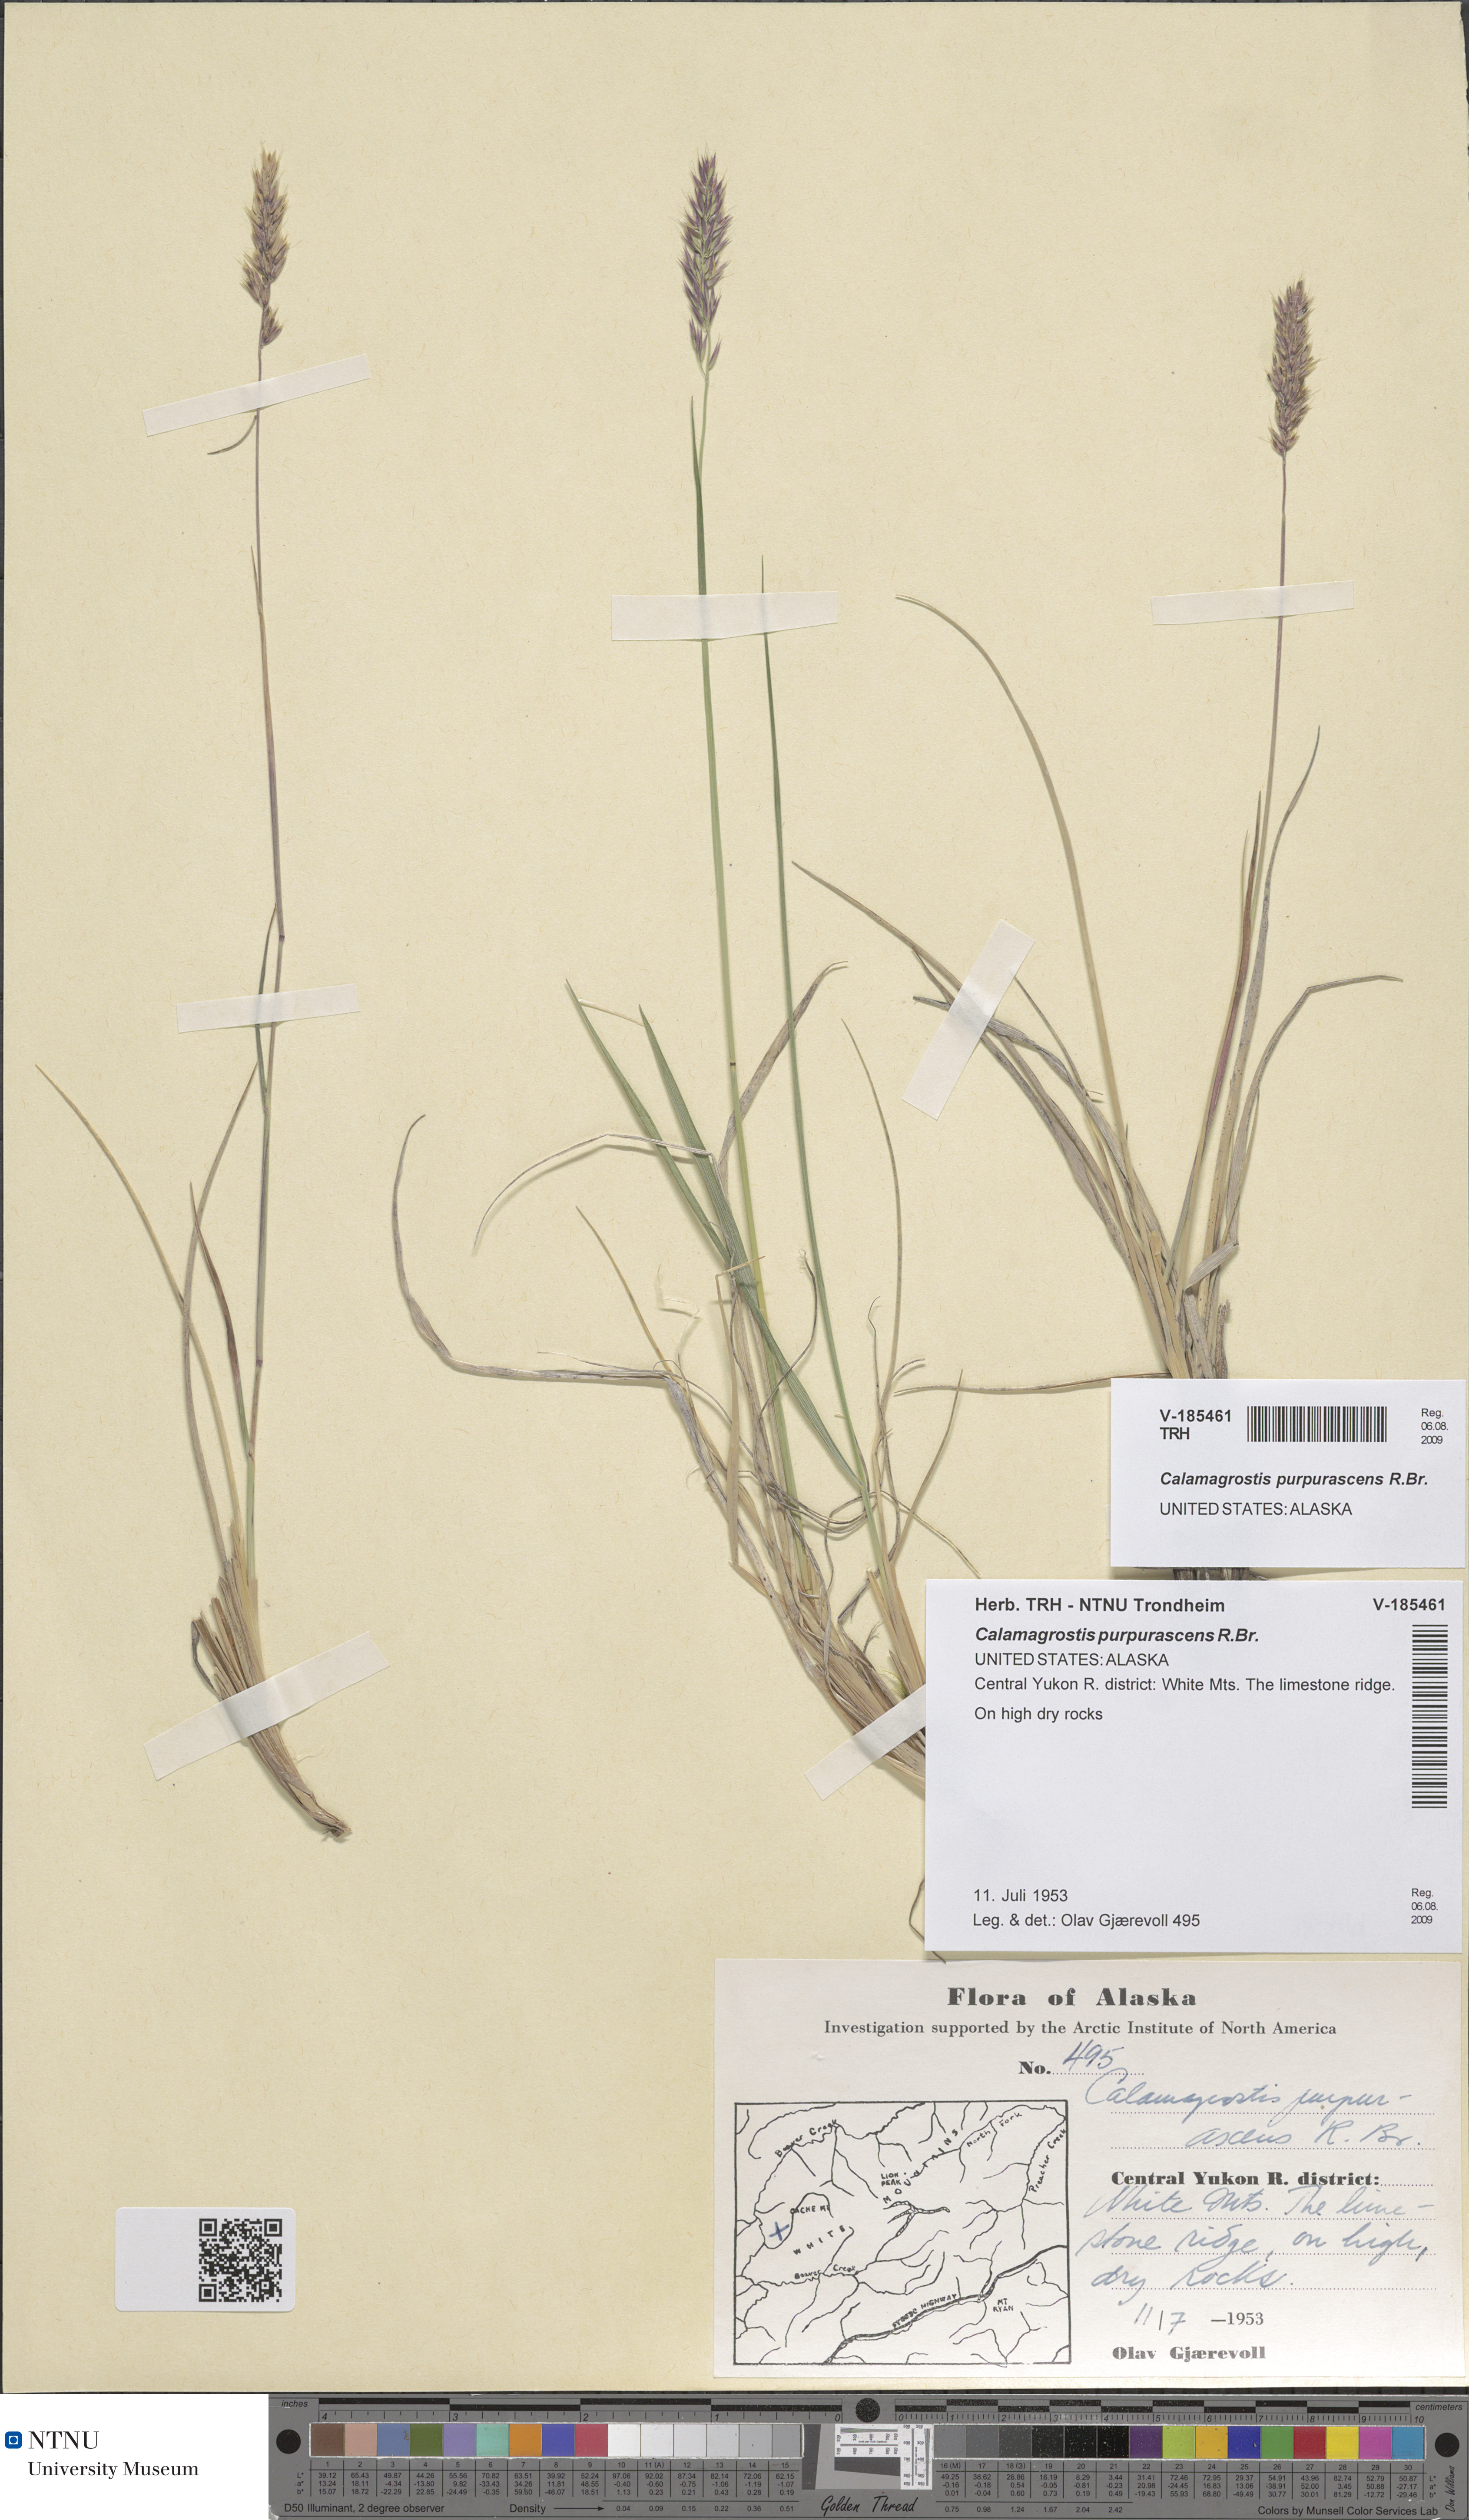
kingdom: Plantae
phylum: Tracheophyta
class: Liliopsida
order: Poales
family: Poaceae
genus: Calamagrostis
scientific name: Calamagrostis purpurascens
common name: Purple reedgrass
